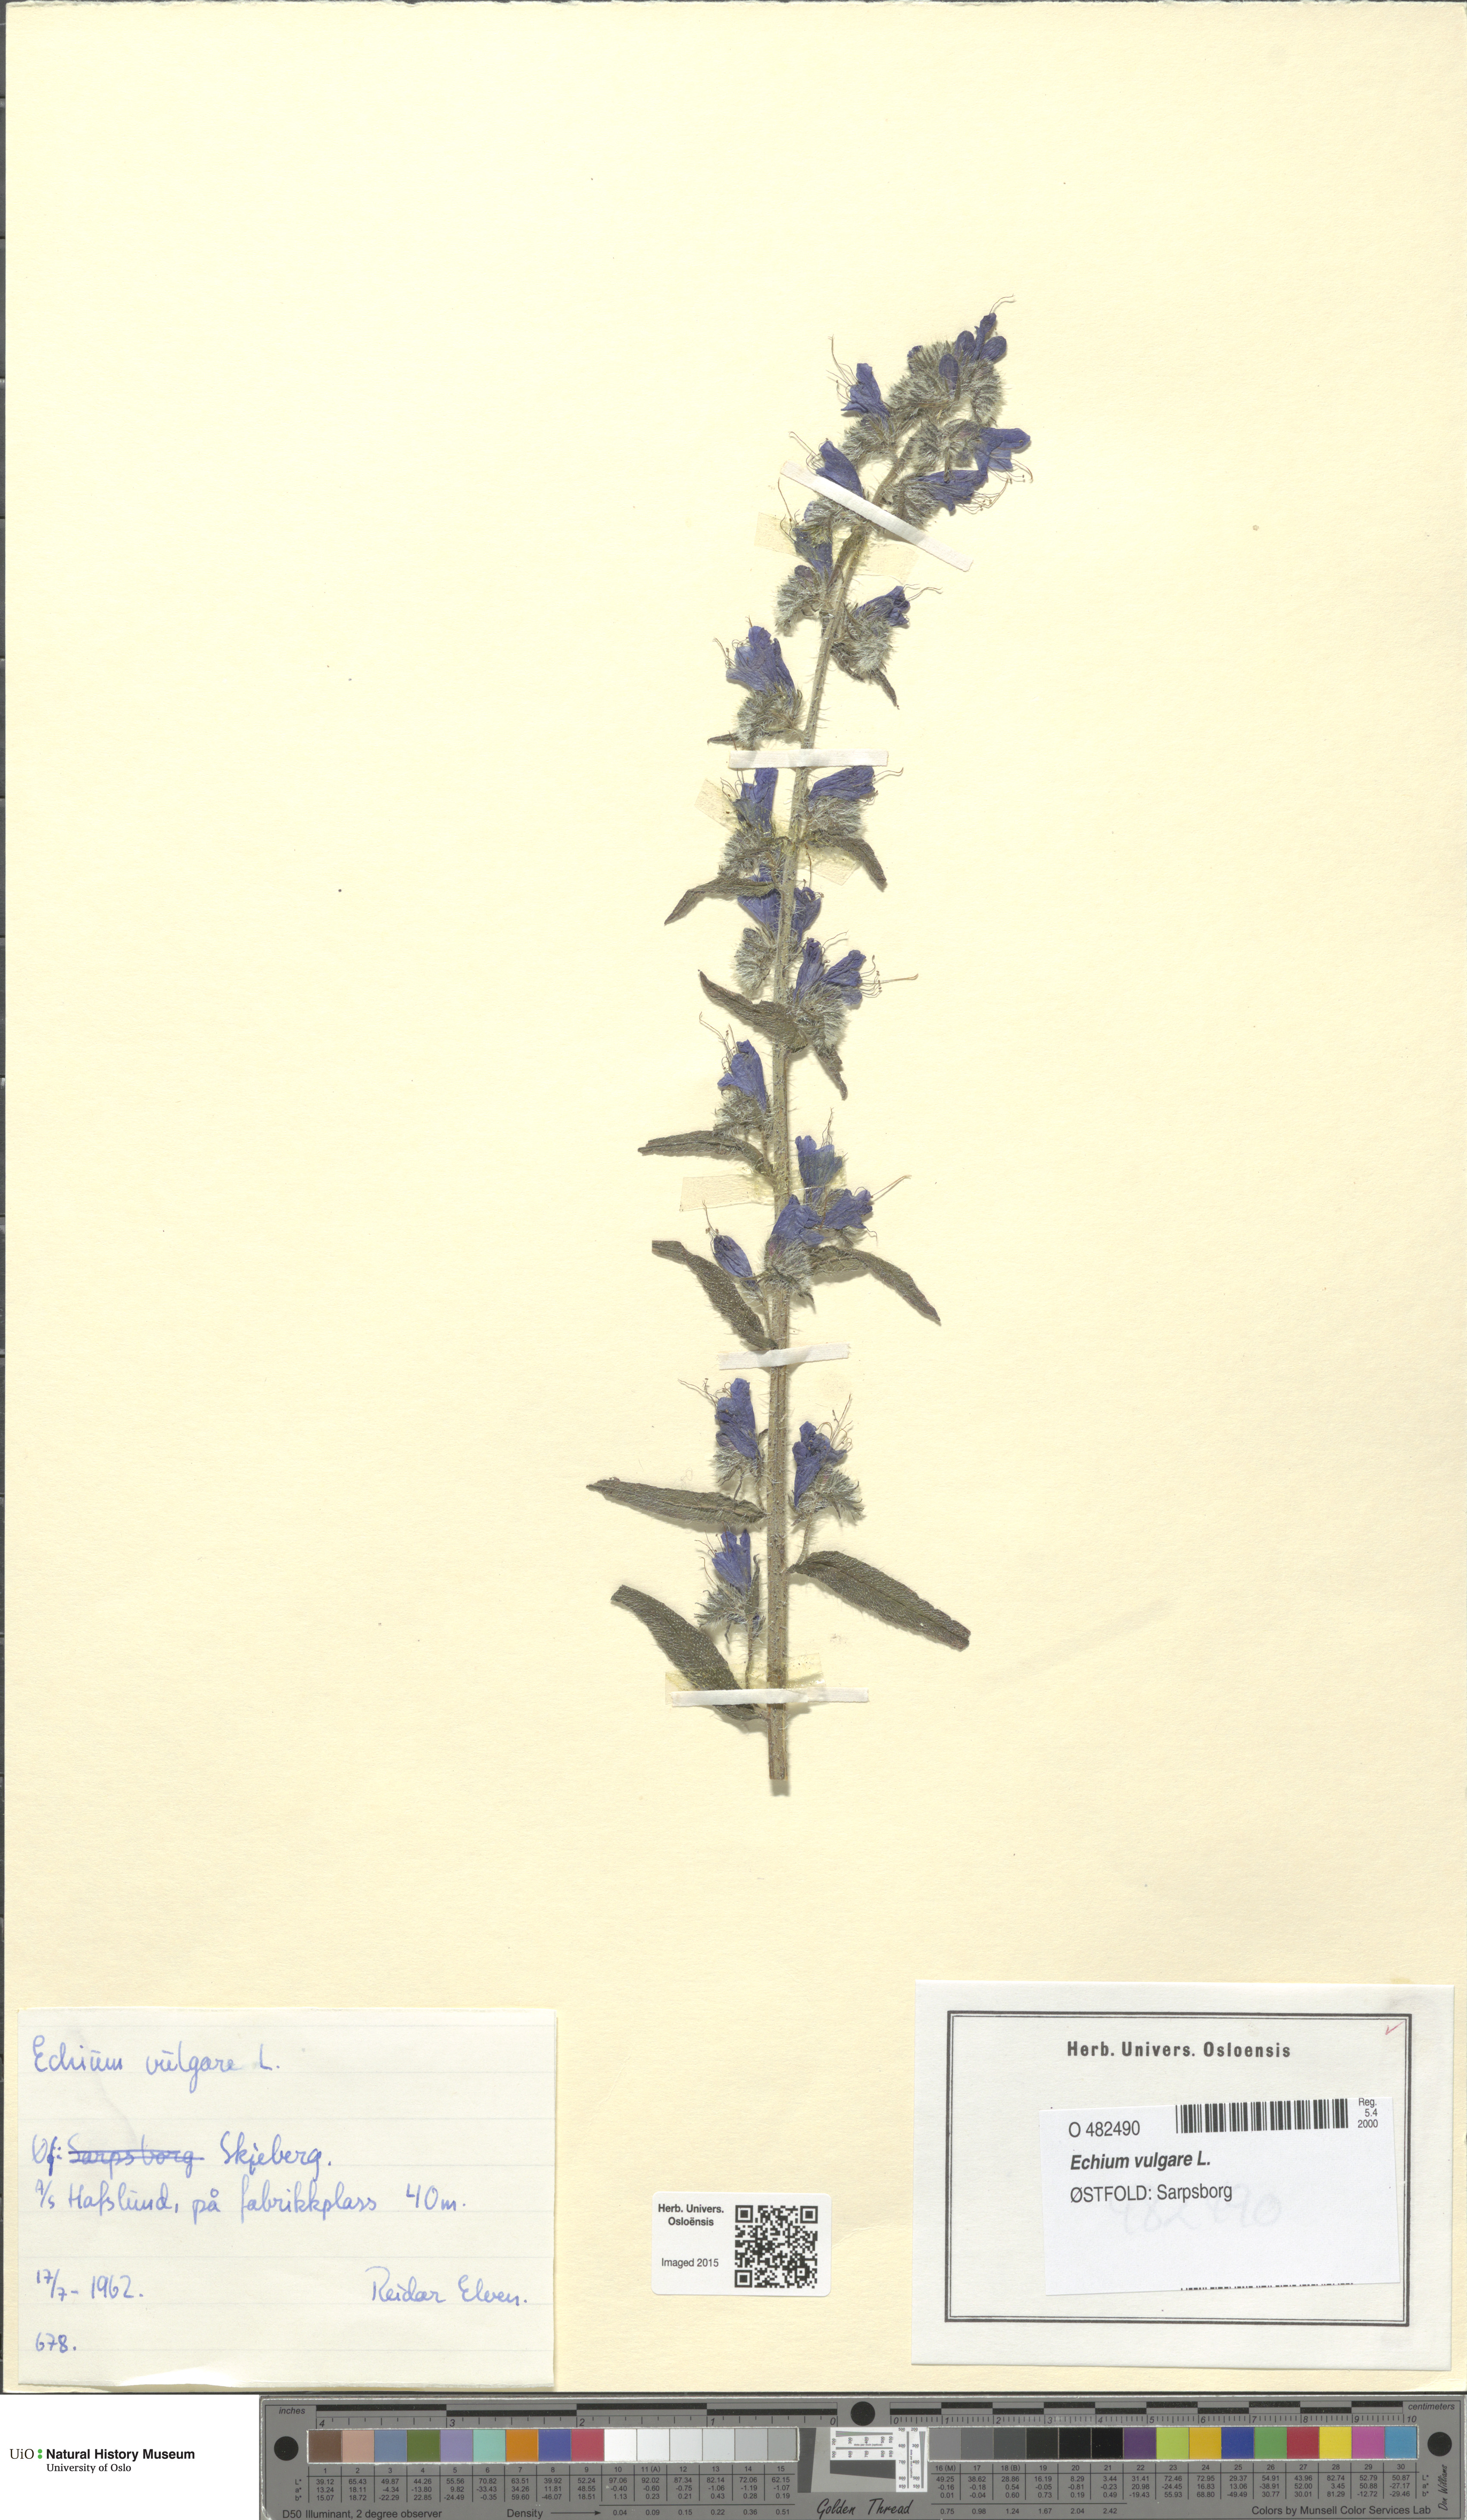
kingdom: Plantae
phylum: Tracheophyta
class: Magnoliopsida
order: Boraginales
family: Boraginaceae
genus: Echium
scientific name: Echium vulgare
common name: Common viper's bugloss
